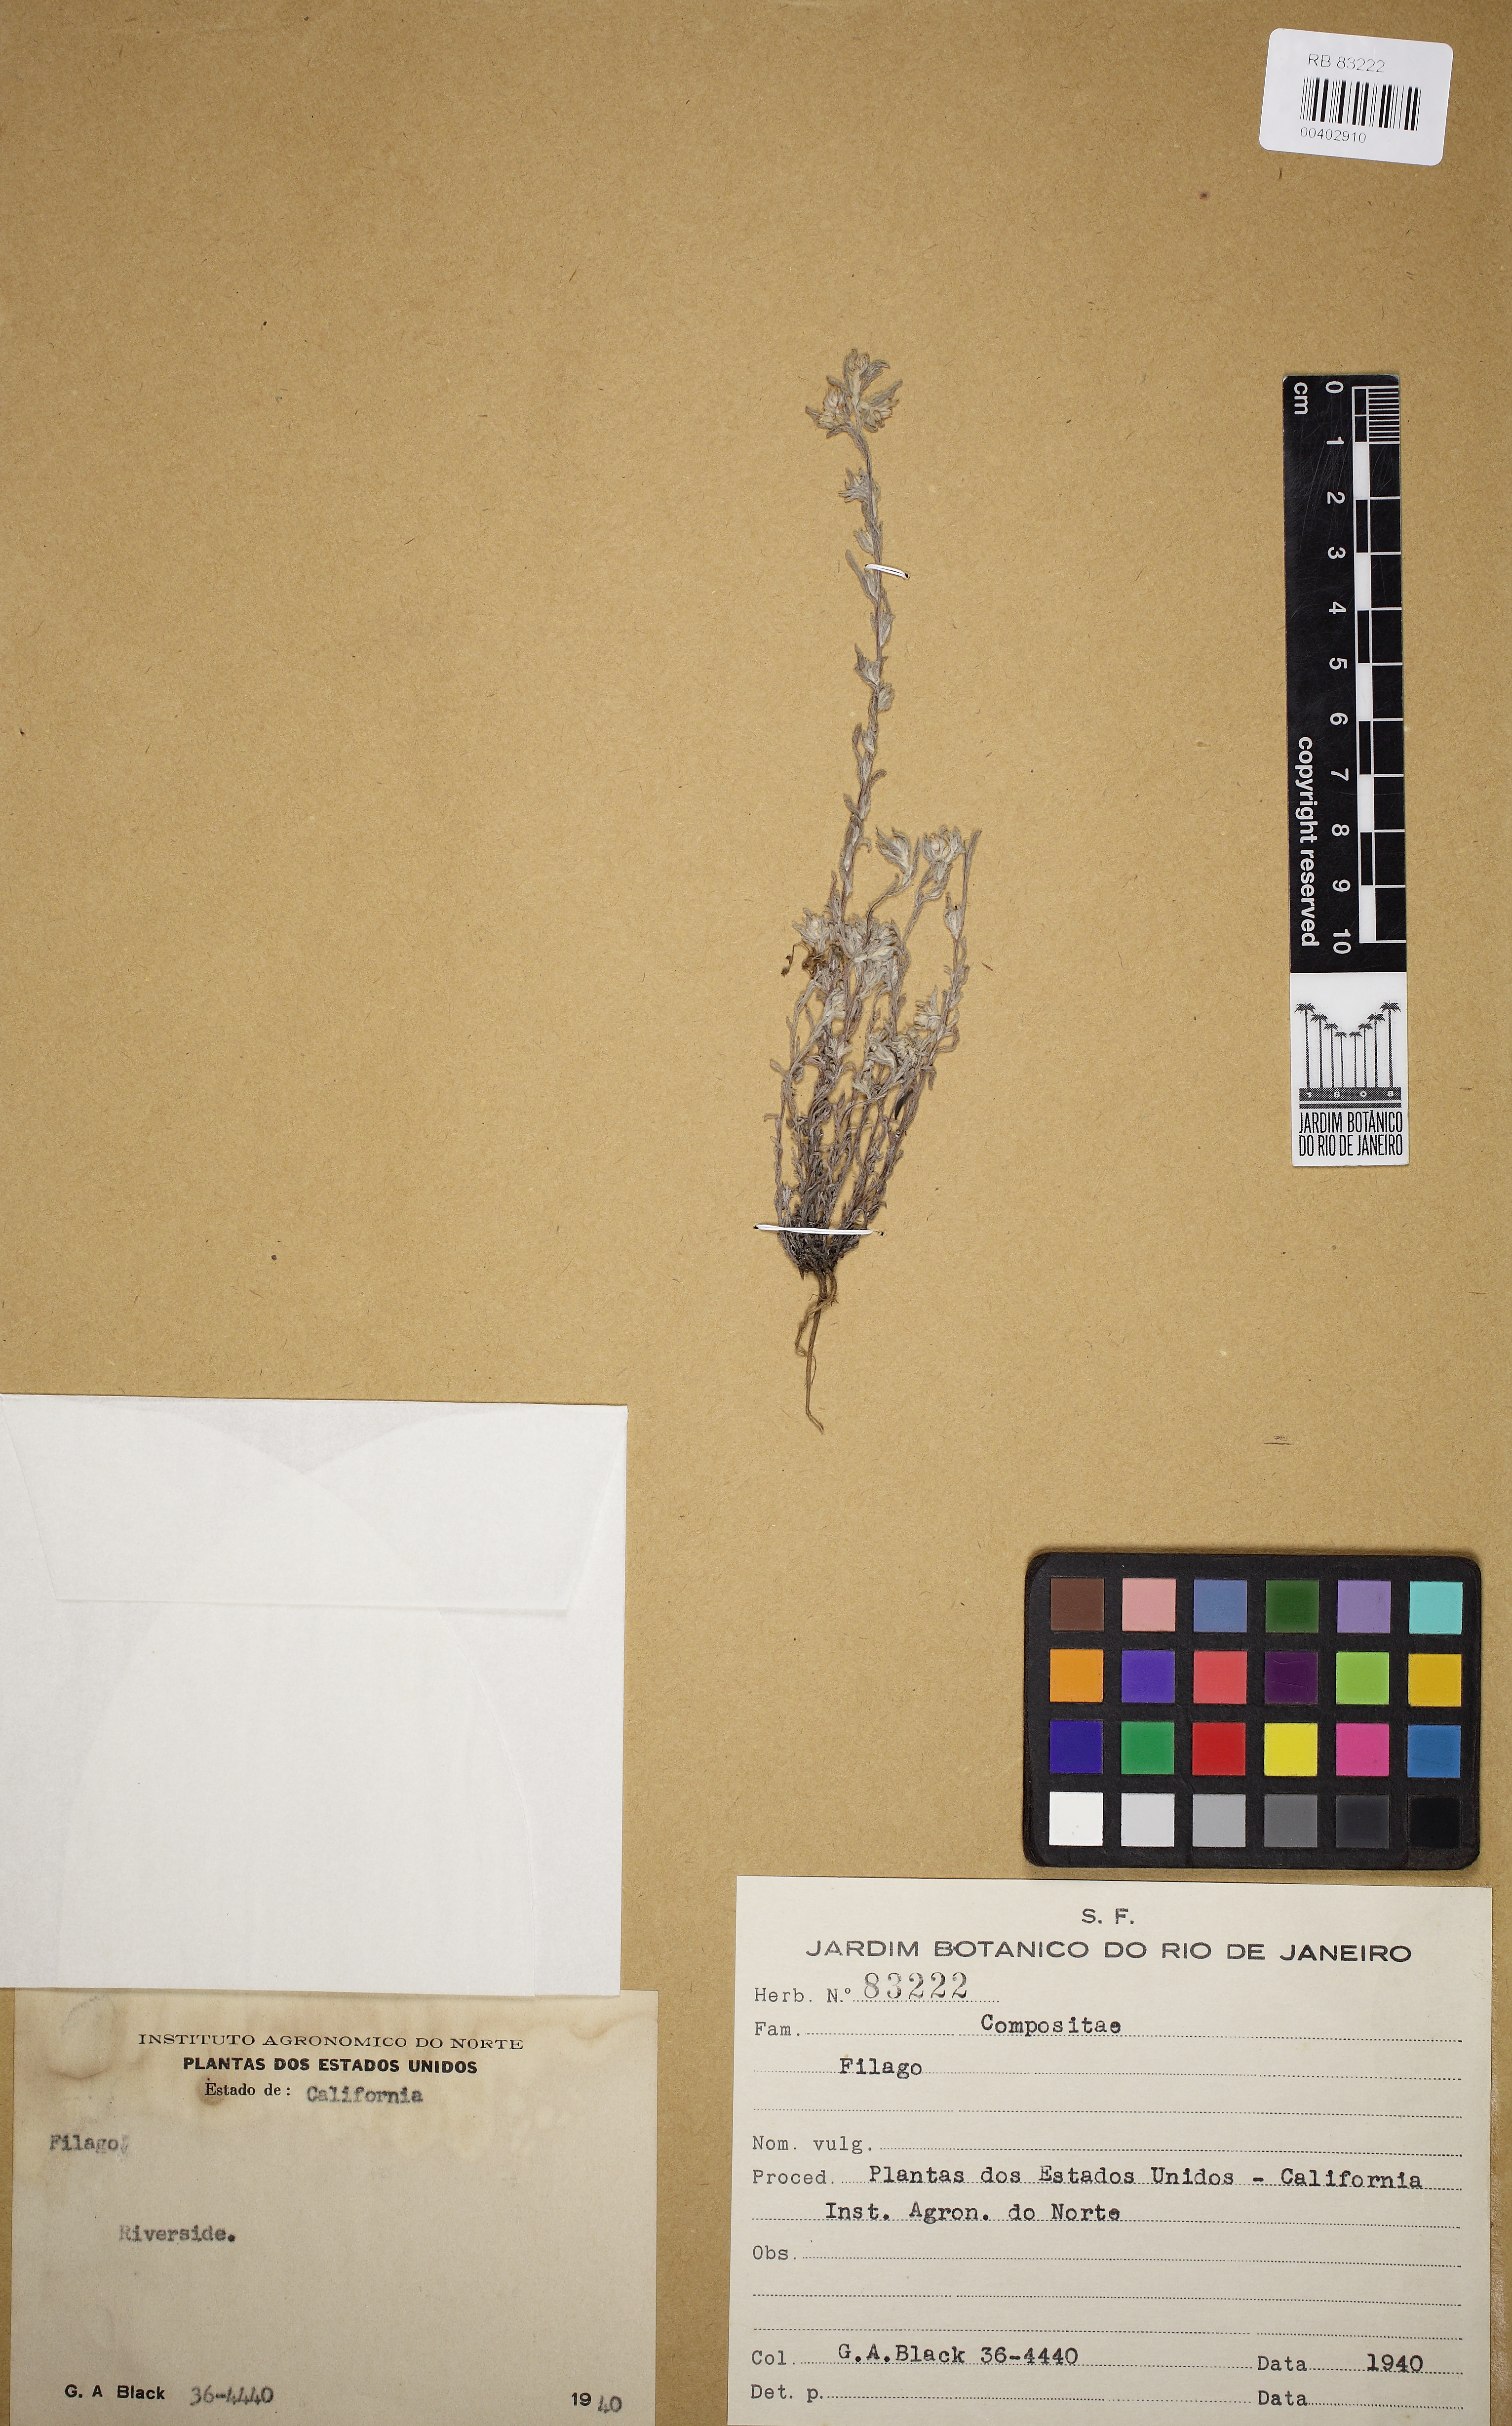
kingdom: Plantae
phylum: Tracheophyta
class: Magnoliopsida
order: Asterales
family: Asteraceae
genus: Filago
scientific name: Filago
